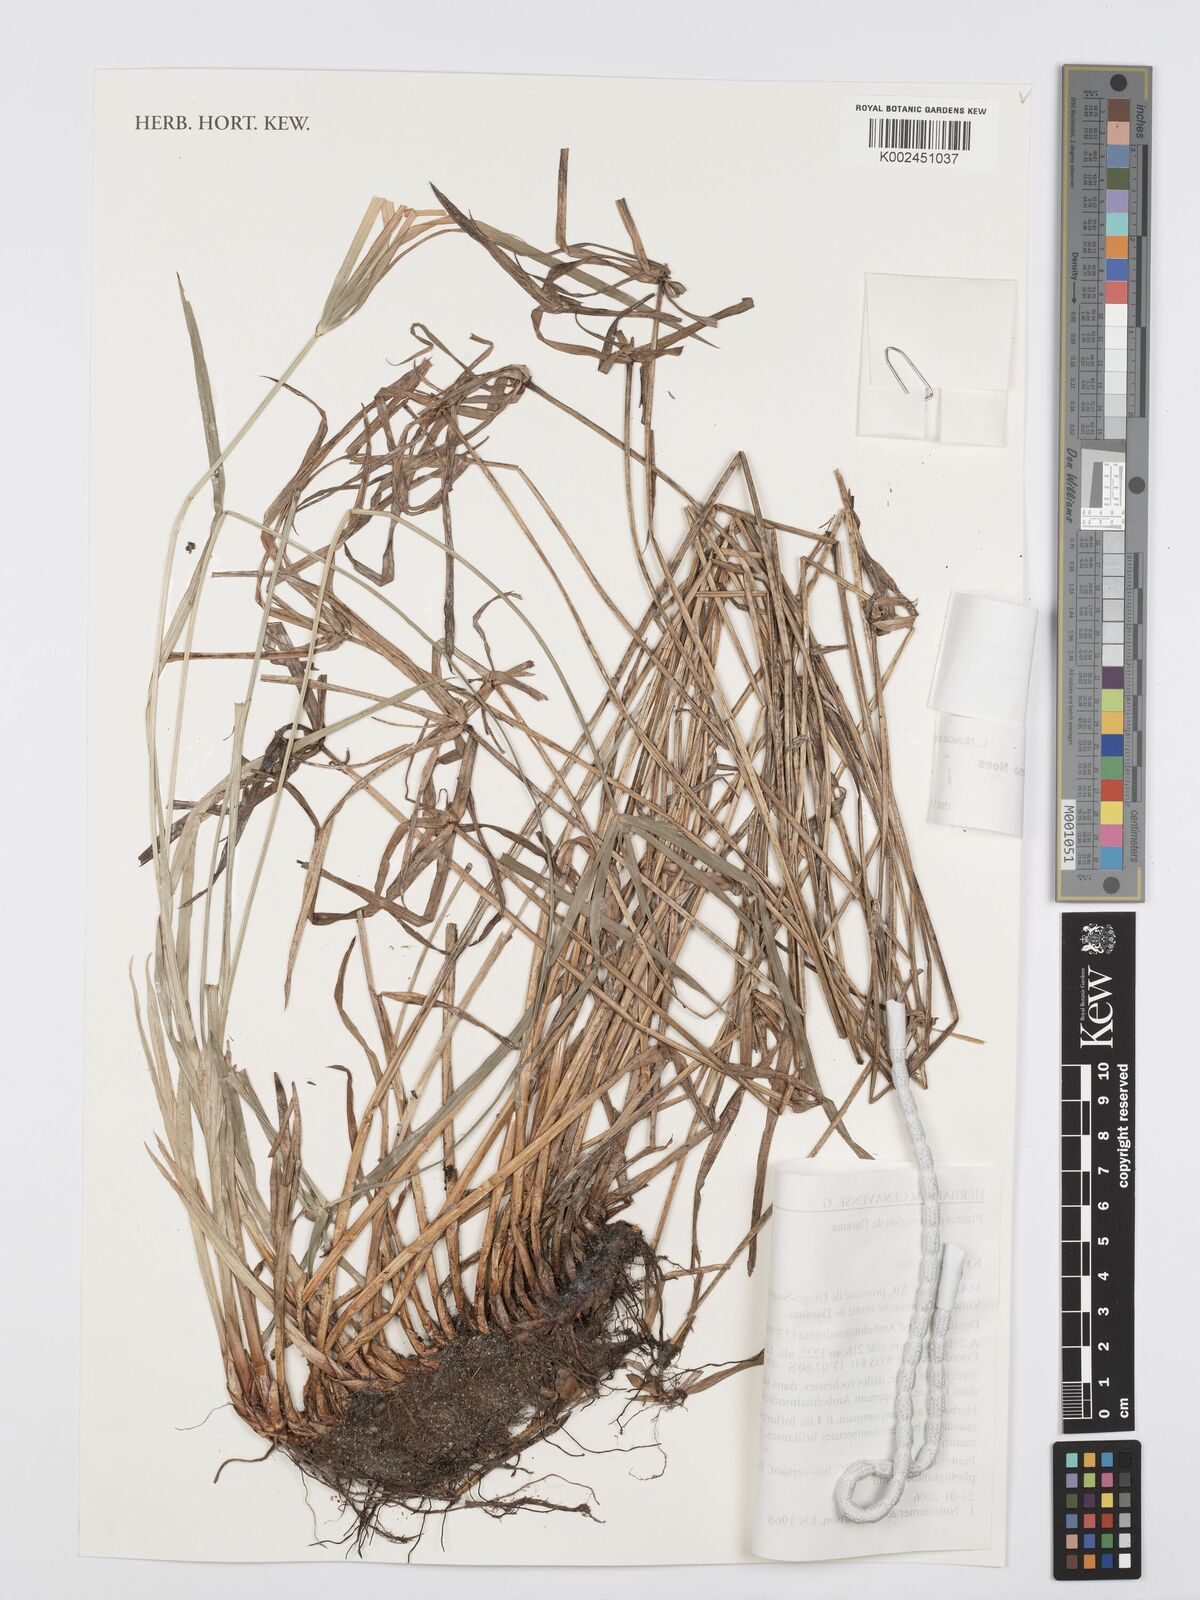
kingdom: Plantae
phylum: Tracheophyta
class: Liliopsida
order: Poales
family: Cyperaceae
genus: Cyperus
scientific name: Cyperus melanospermus
